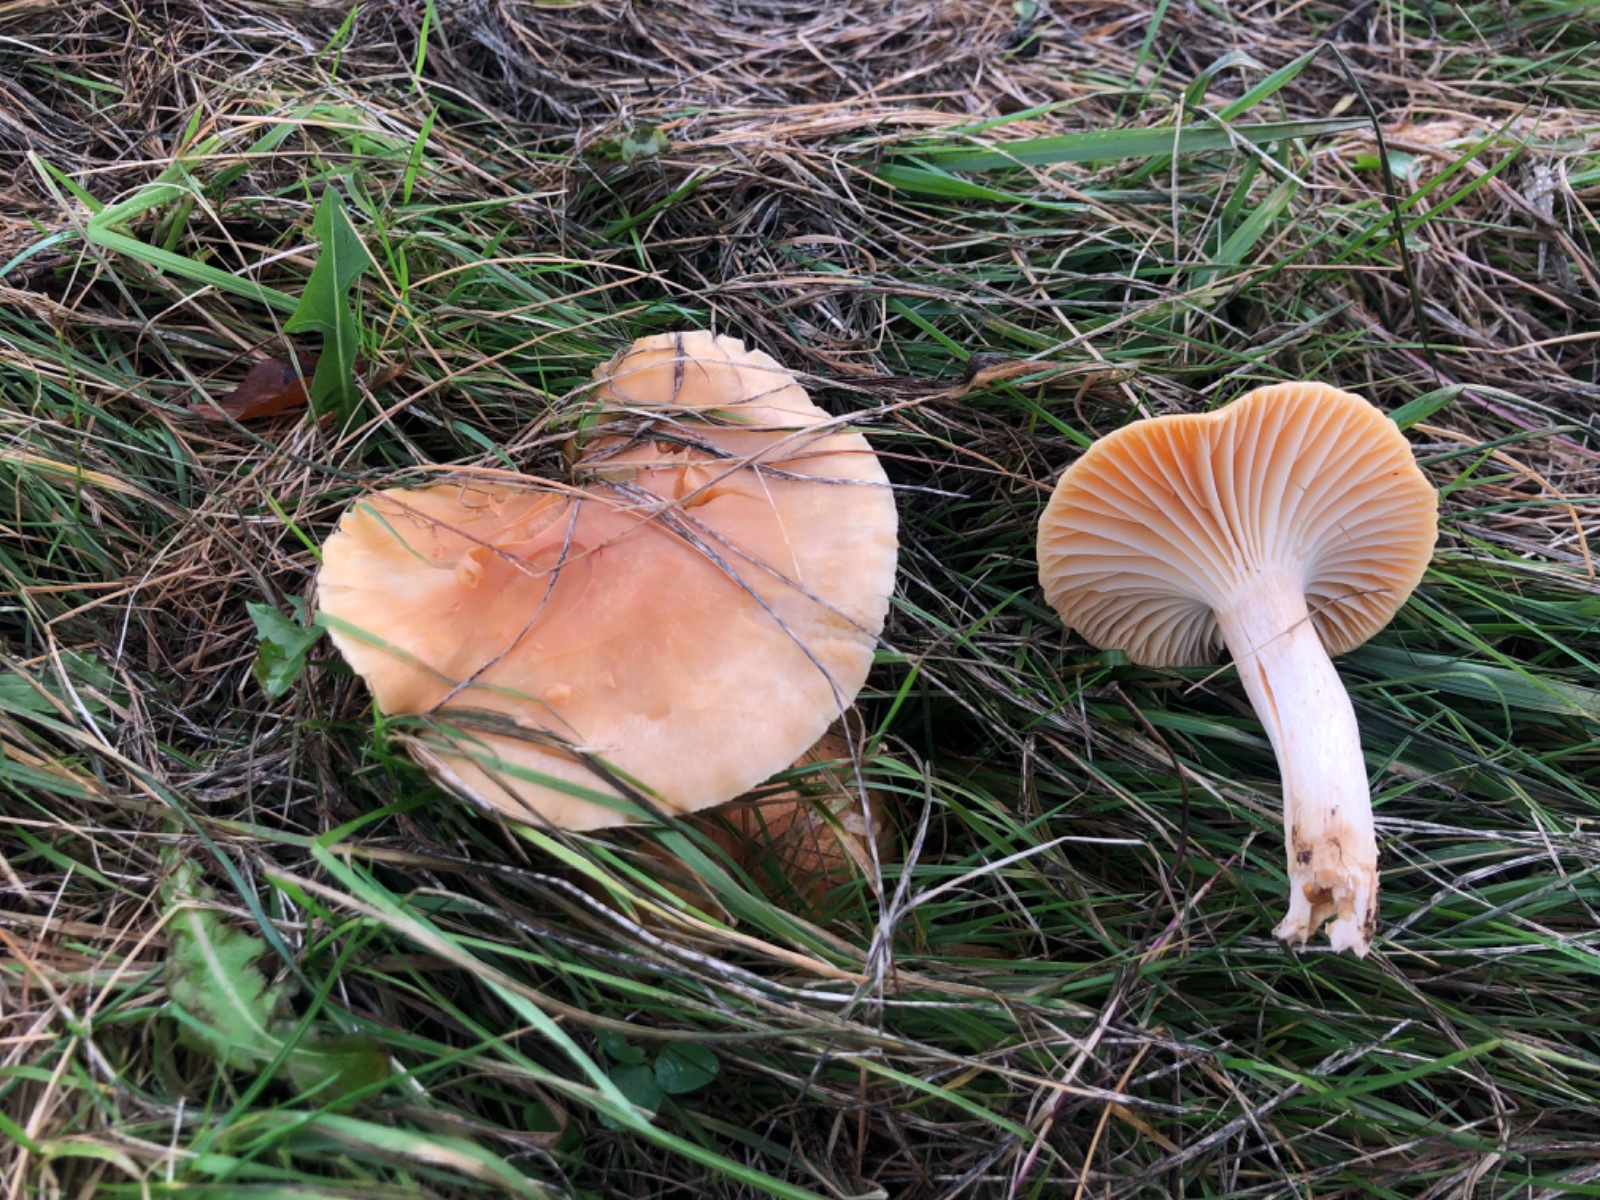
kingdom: Fungi
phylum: Basidiomycota
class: Agaricomycetes
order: Agaricales
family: Hygrophoraceae
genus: Cuphophyllus
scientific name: Cuphophyllus pratensis
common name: eng-vokshat
